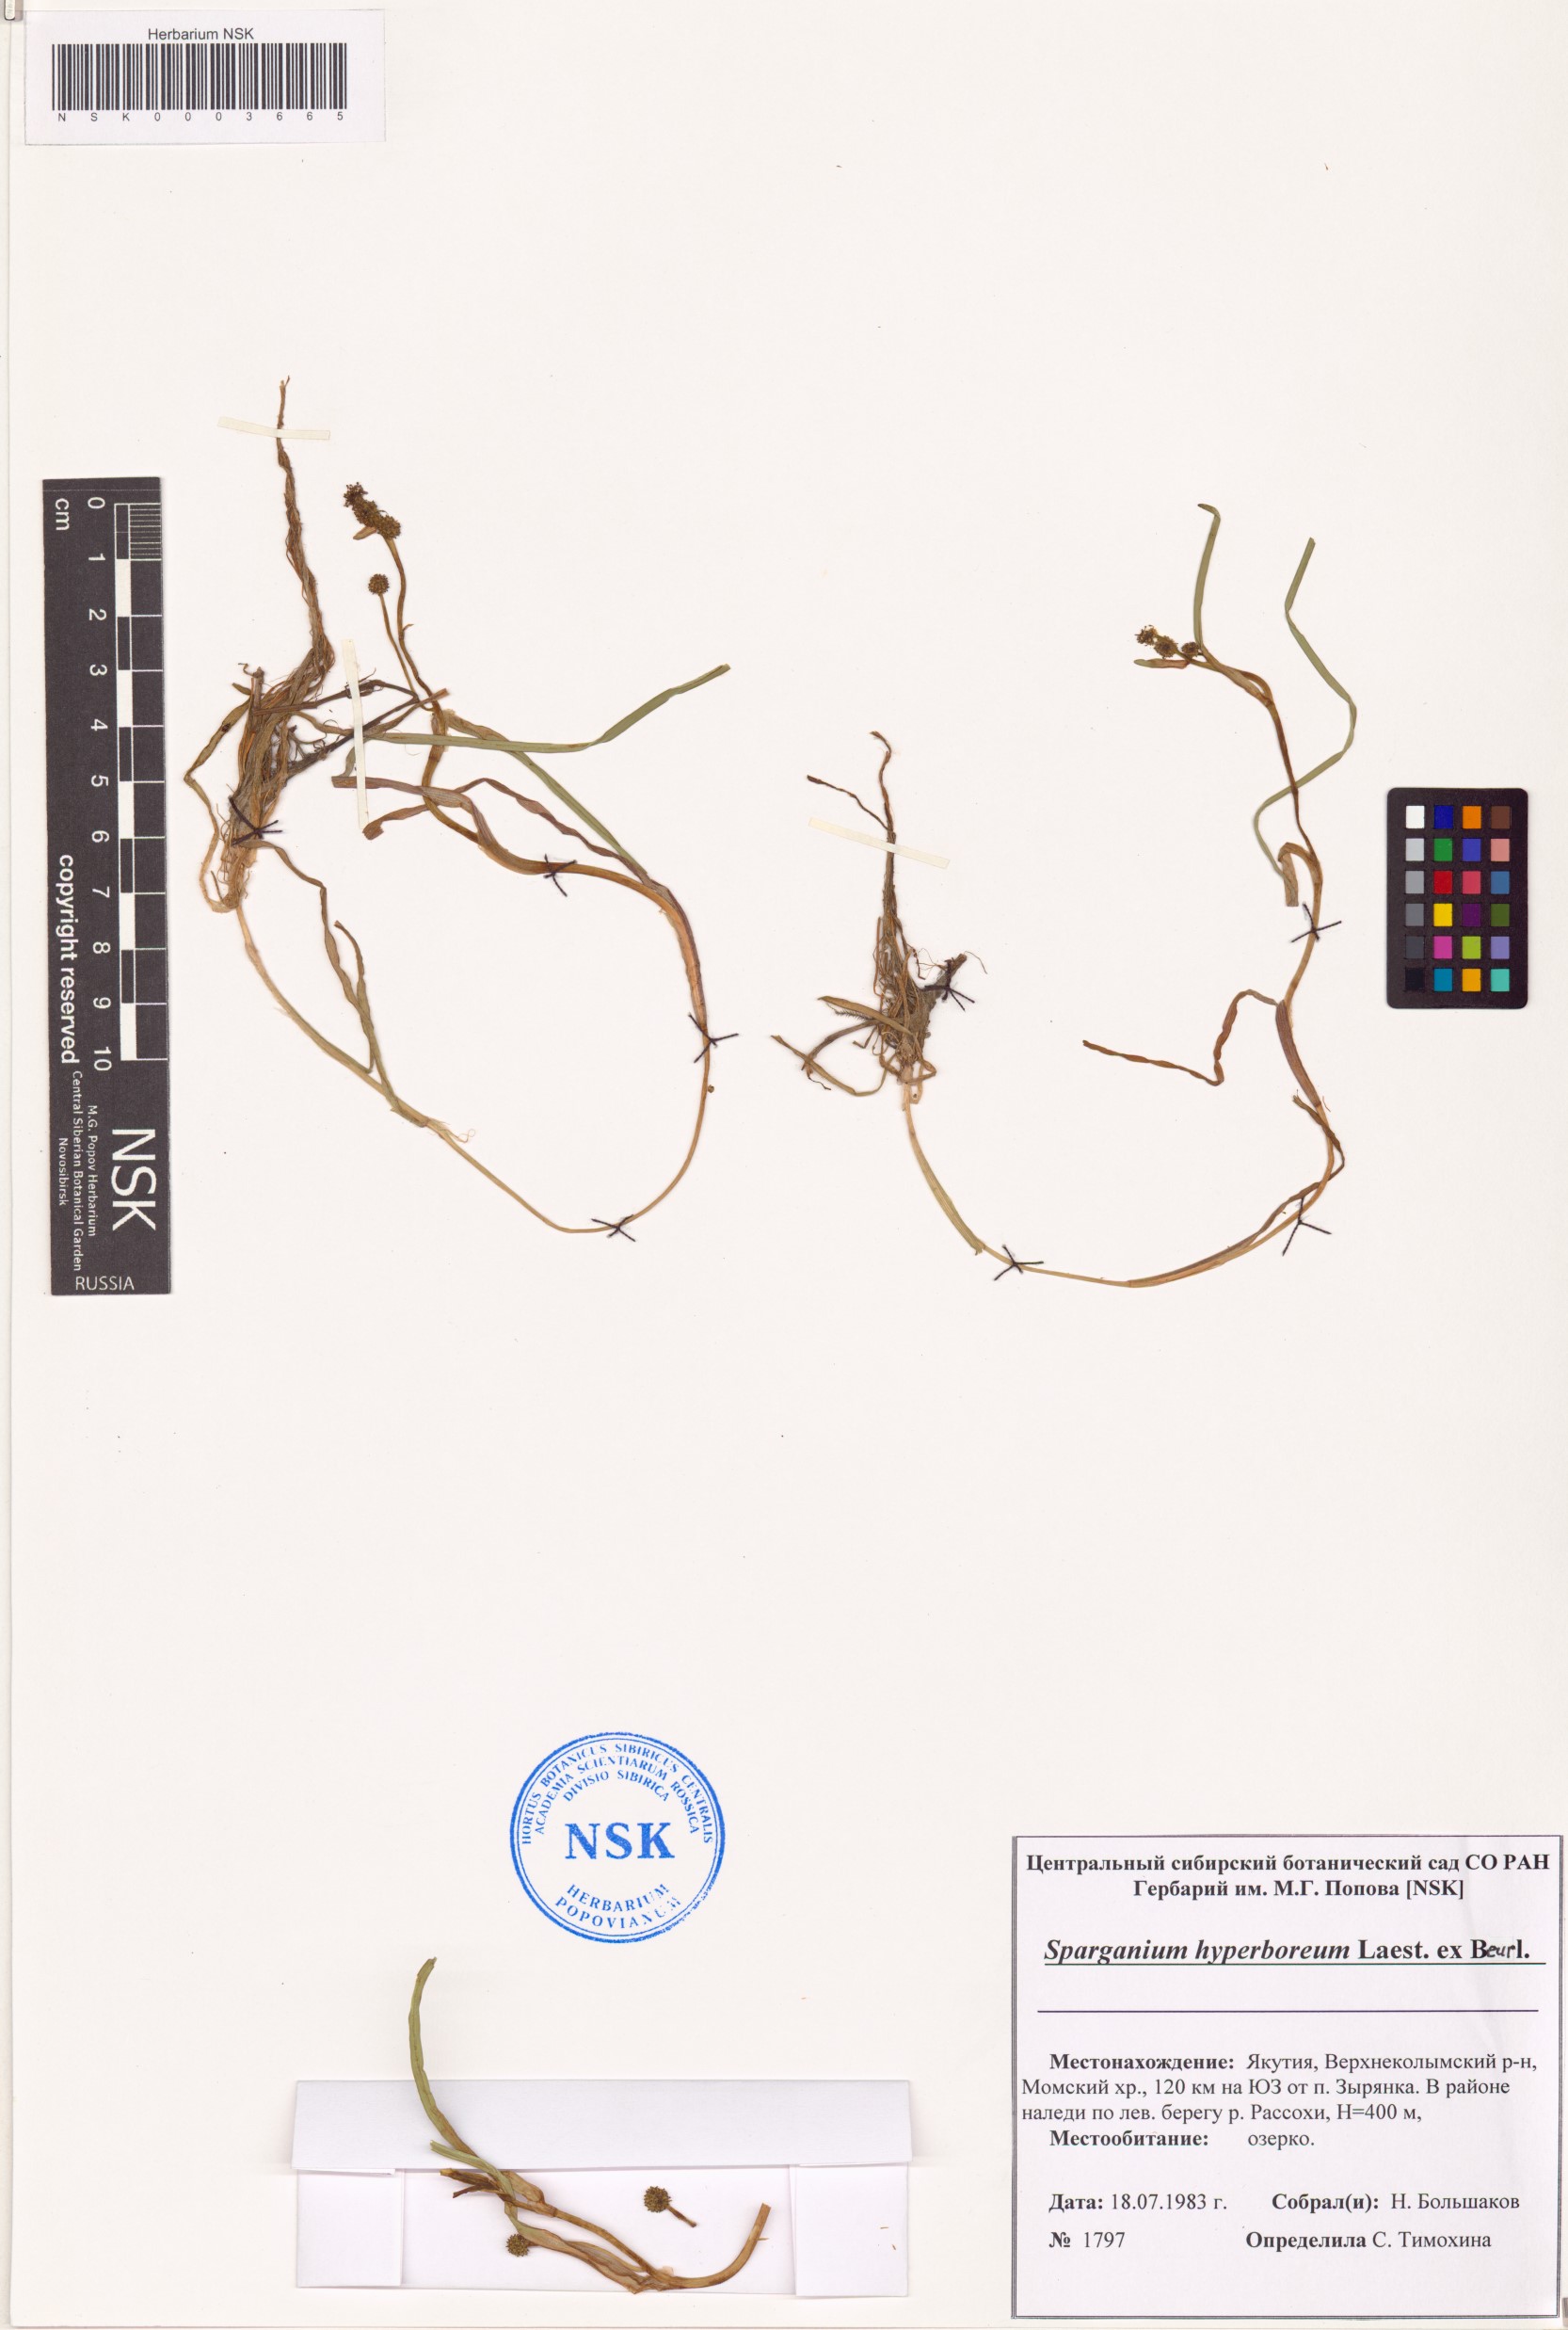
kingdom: Plantae
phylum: Tracheophyta
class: Liliopsida
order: Poales
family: Typhaceae
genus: Sparganium
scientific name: Sparganium hyperboreum
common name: Arctic burreed
